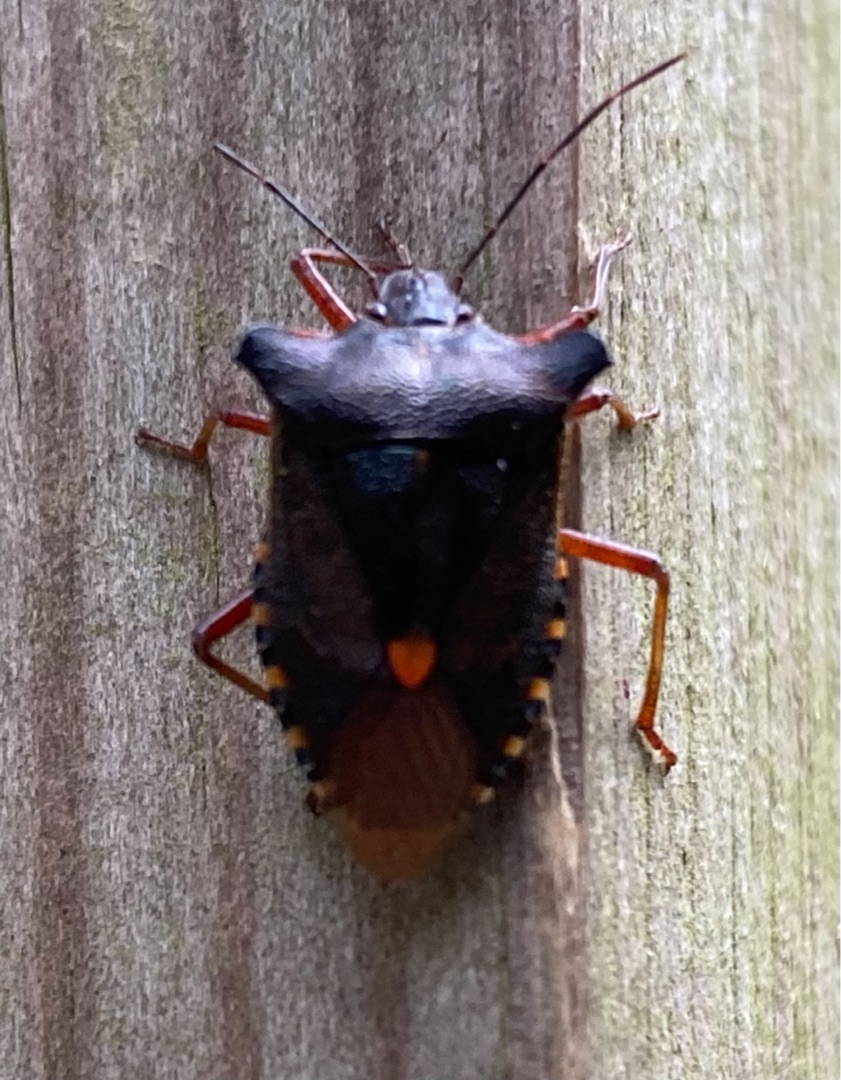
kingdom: Animalia
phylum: Arthropoda
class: Insecta
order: Hemiptera
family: Pentatomidae
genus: Pentatoma
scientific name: Pentatoma rufipes
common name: Rødbenet bredtæge
